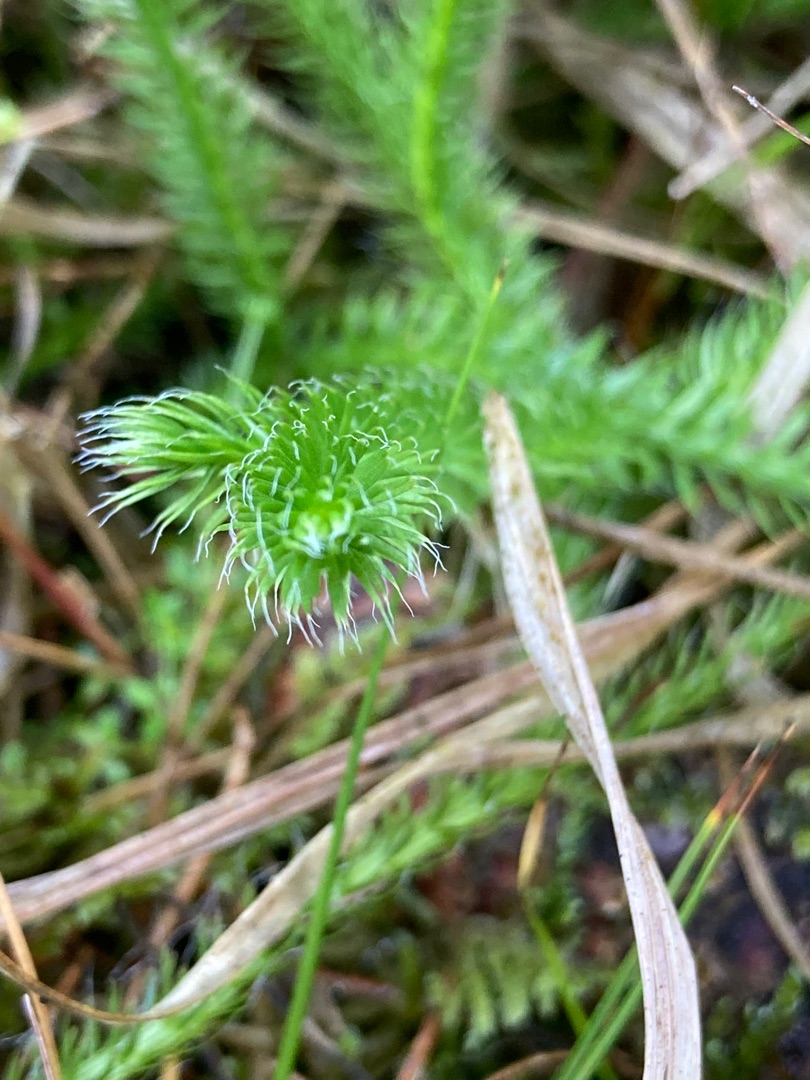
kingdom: Plantae
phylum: Tracheophyta
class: Lycopodiopsida
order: Lycopodiales
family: Lycopodiaceae
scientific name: Lycopodiaceae
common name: Ulvefodfamilien
